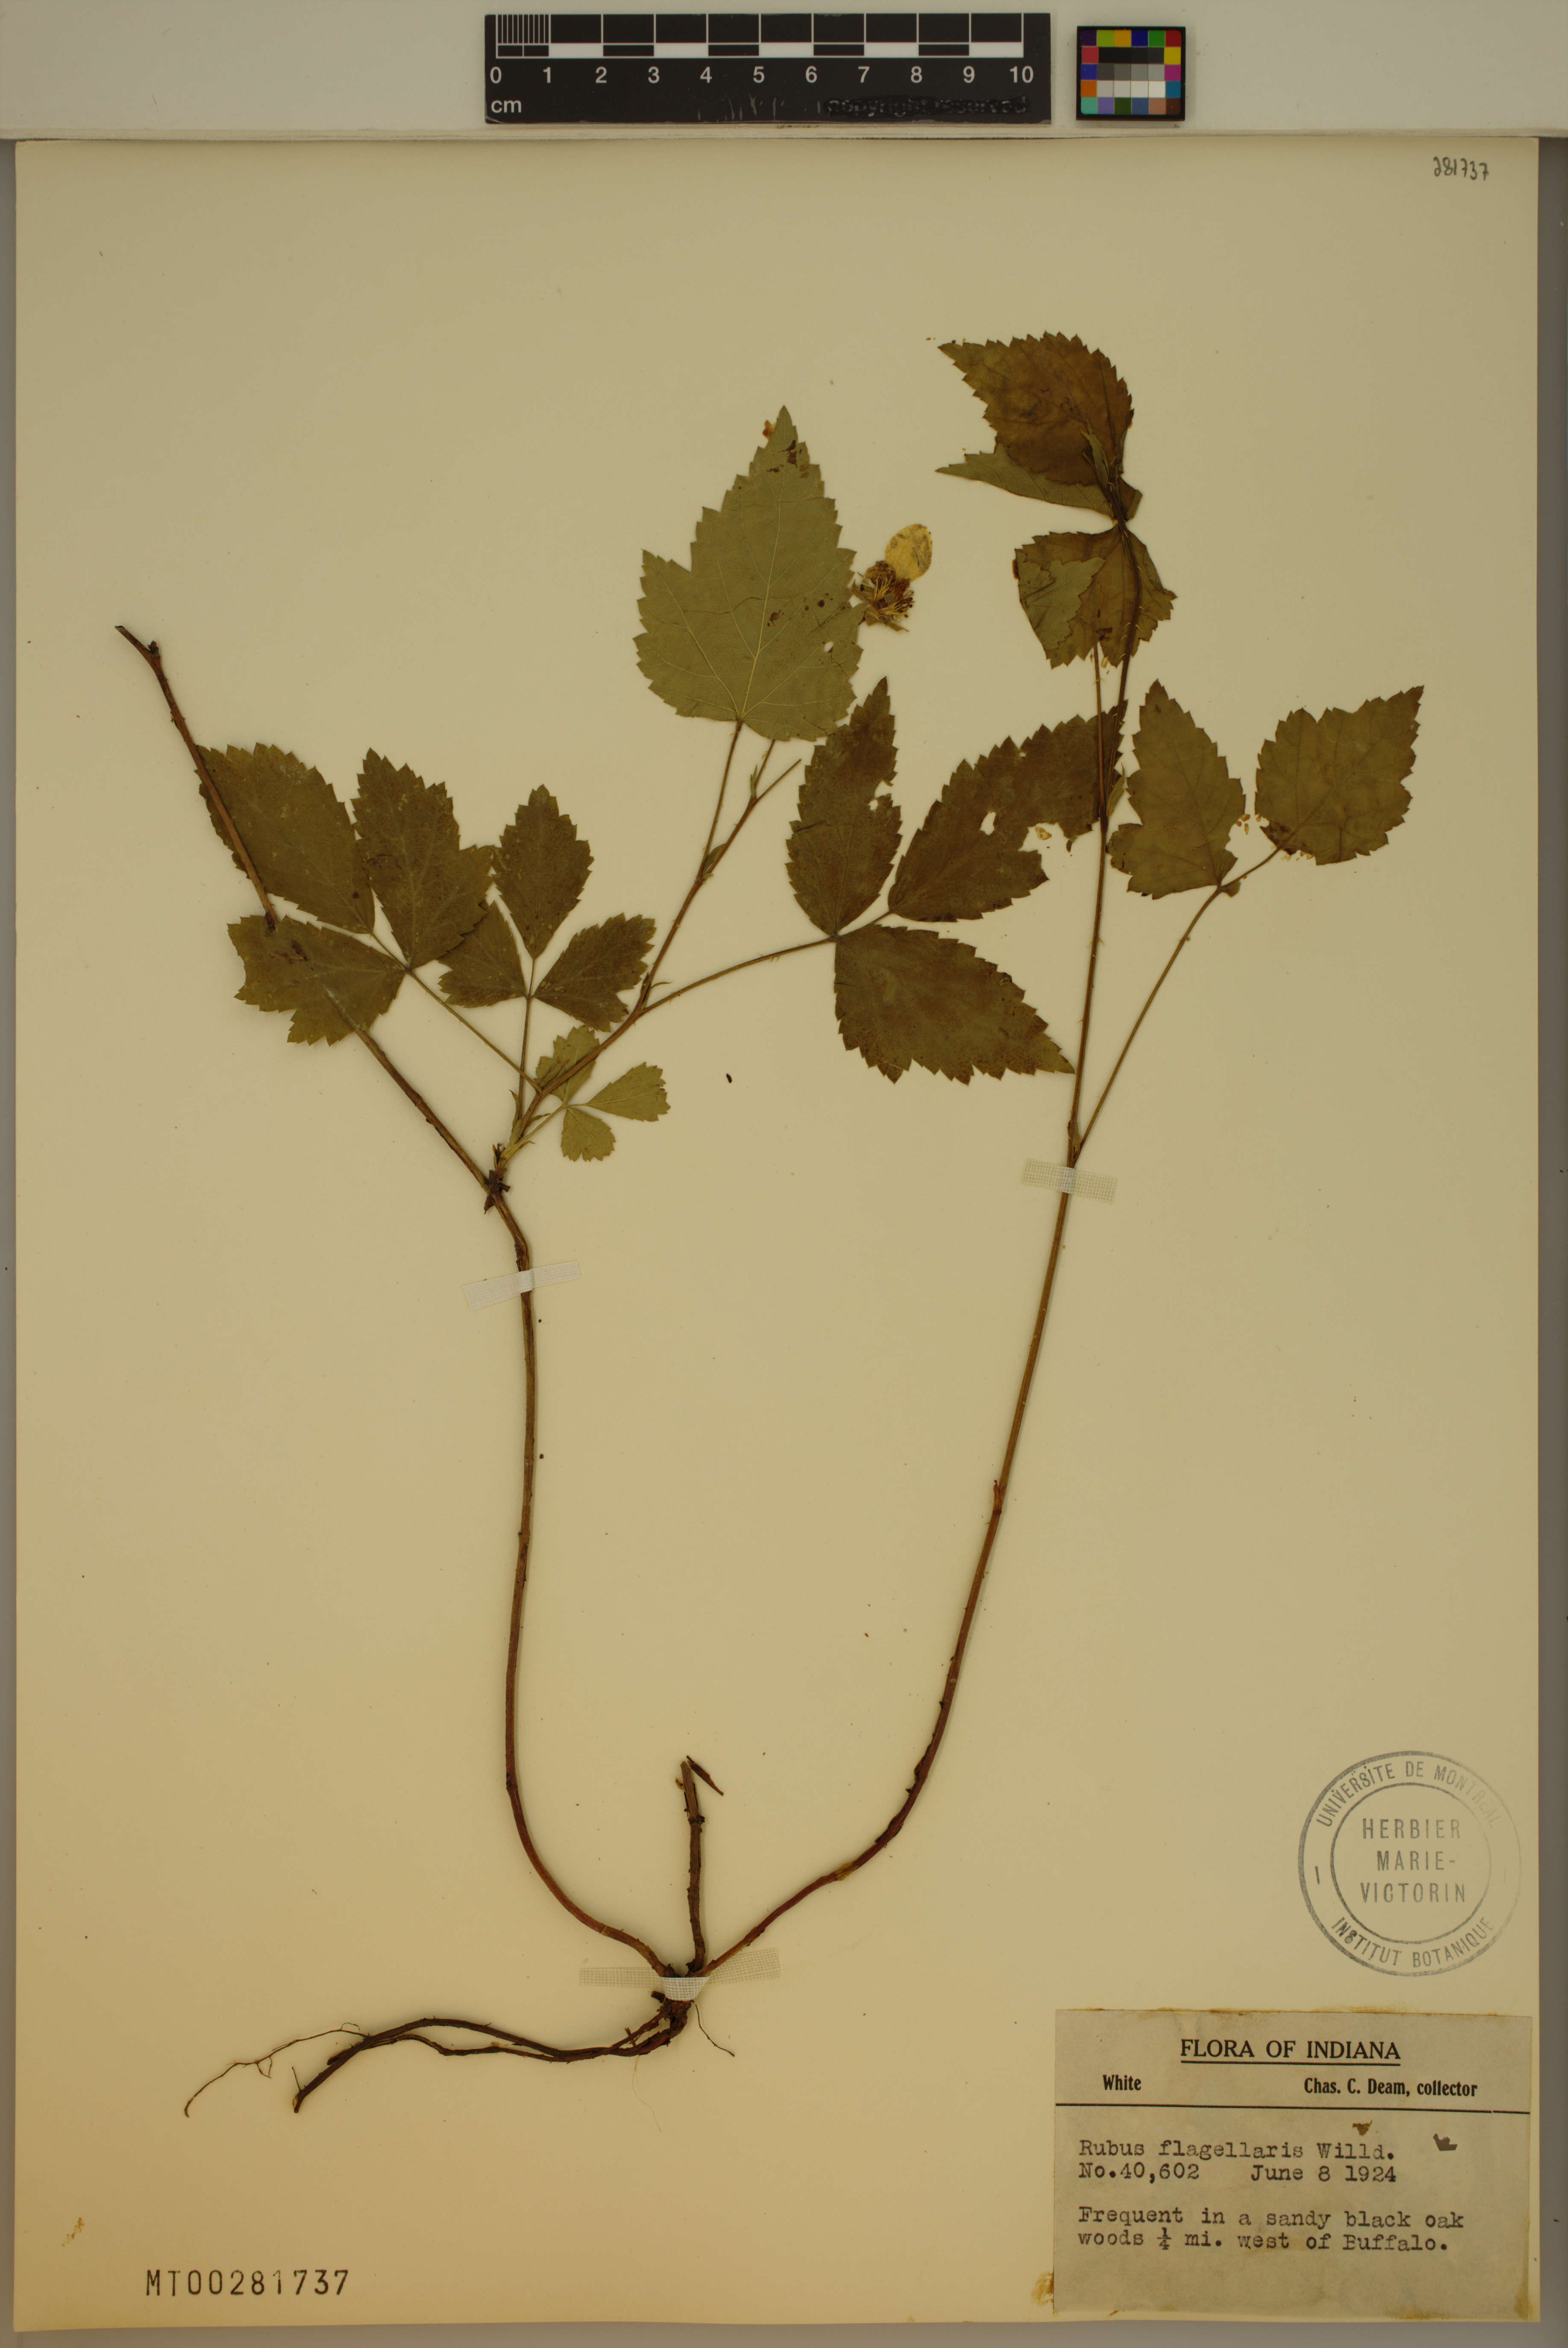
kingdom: Plantae
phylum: Tracheophyta
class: Magnoliopsida
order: Rosales
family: Rosaceae
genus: Rubus
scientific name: Rubus flagellaris
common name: American dewberry
